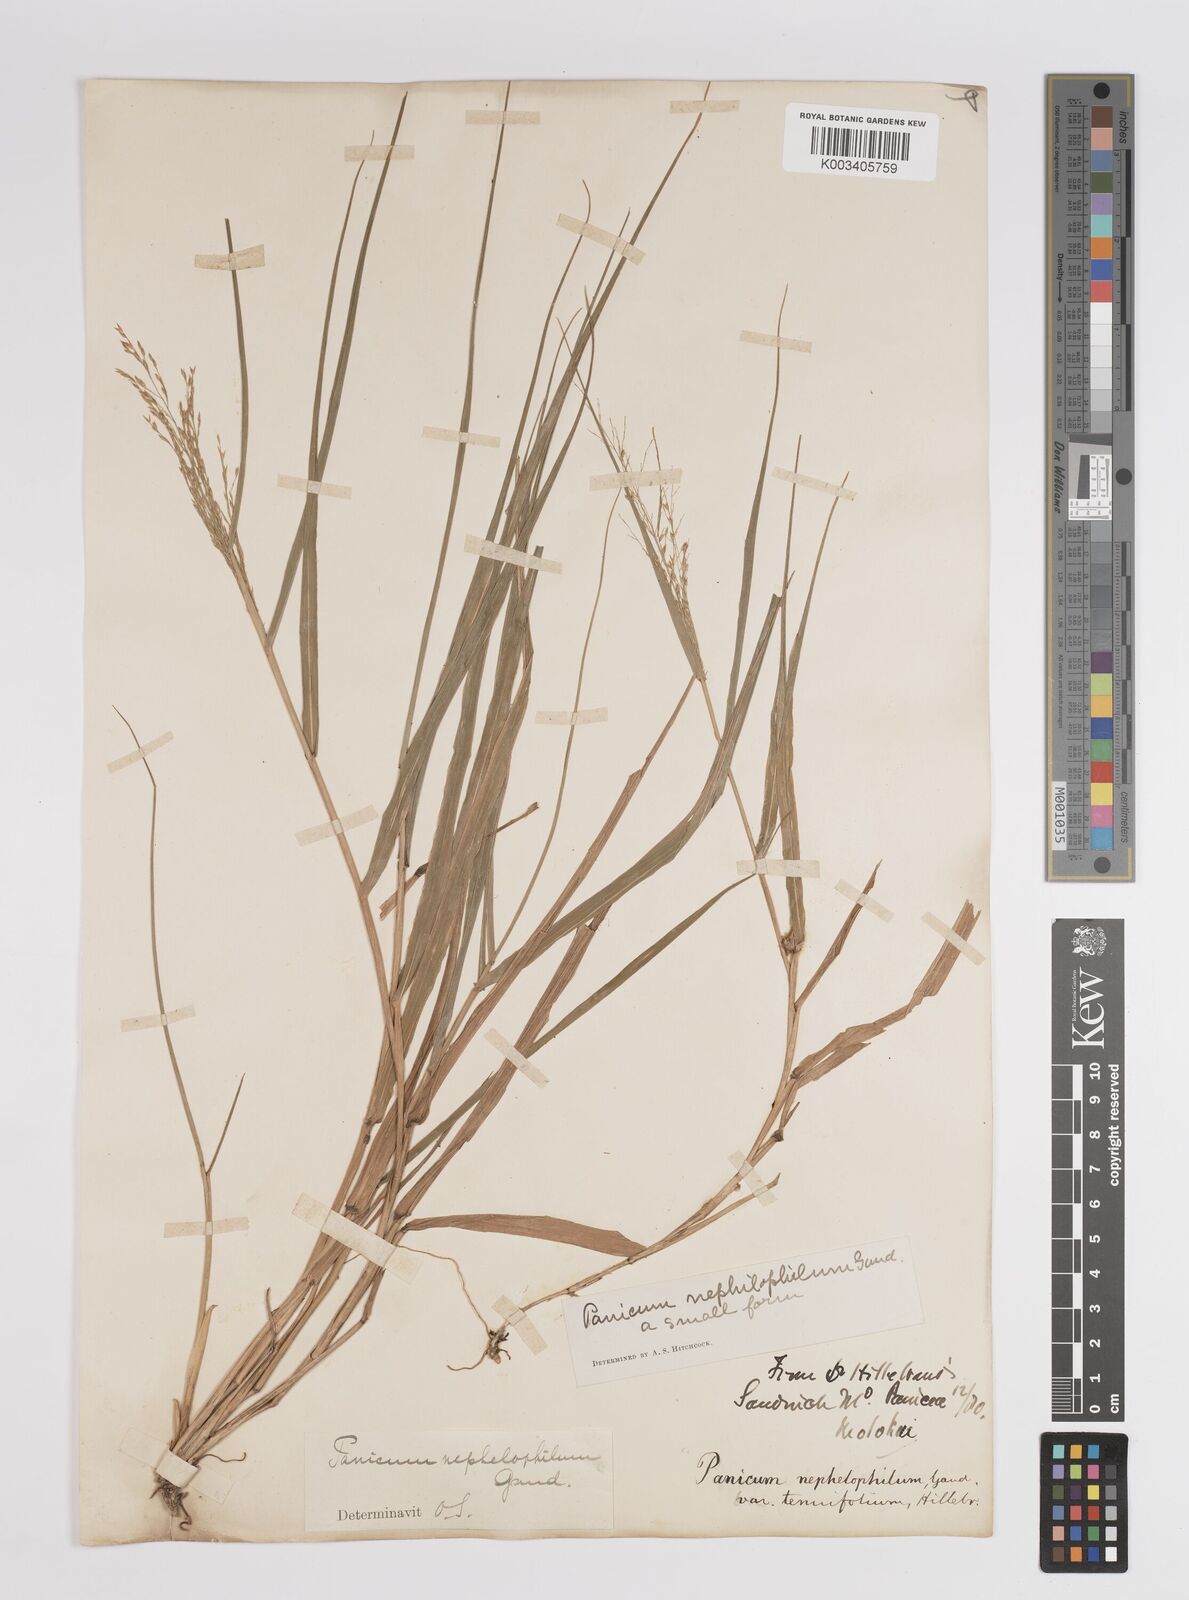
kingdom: Plantae
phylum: Tracheophyta
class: Liliopsida
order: Poales
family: Poaceae
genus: Panicum
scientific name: Panicum nephelophilum
